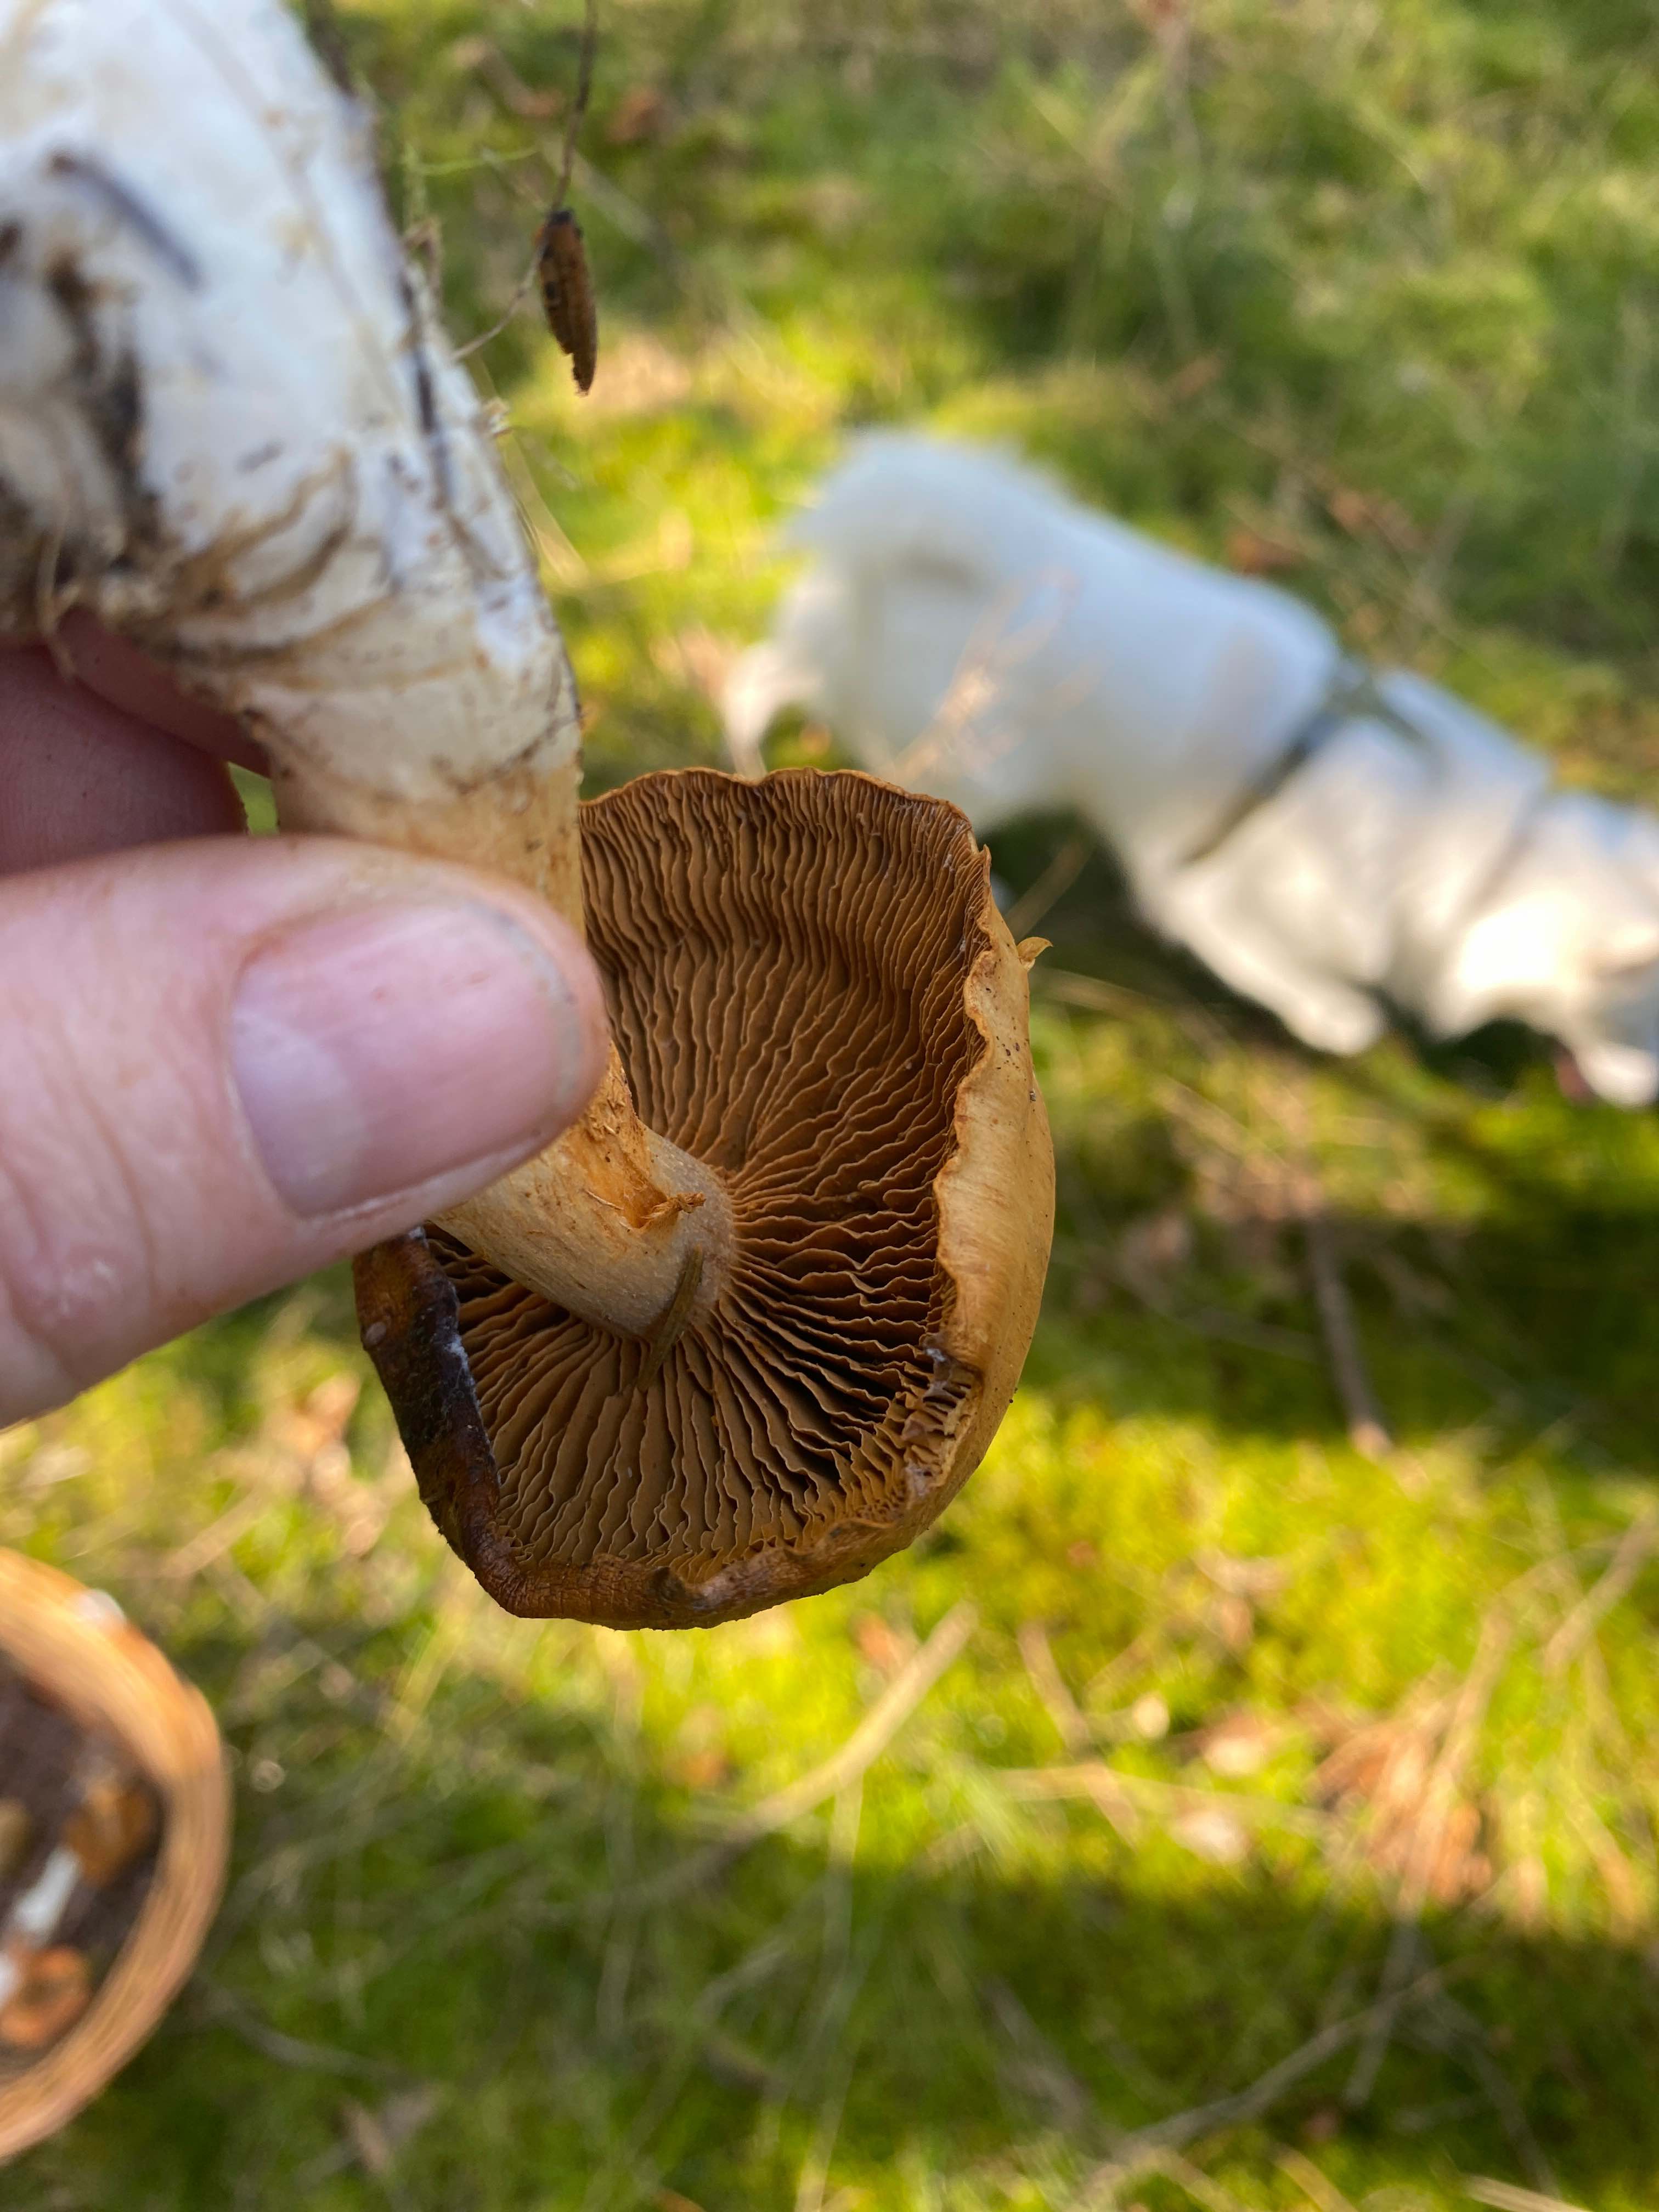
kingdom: Fungi
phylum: Basidiomycota
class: Agaricomycetes
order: Agaricales
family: Cortinariaceae
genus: Cortinarius
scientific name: Cortinarius
